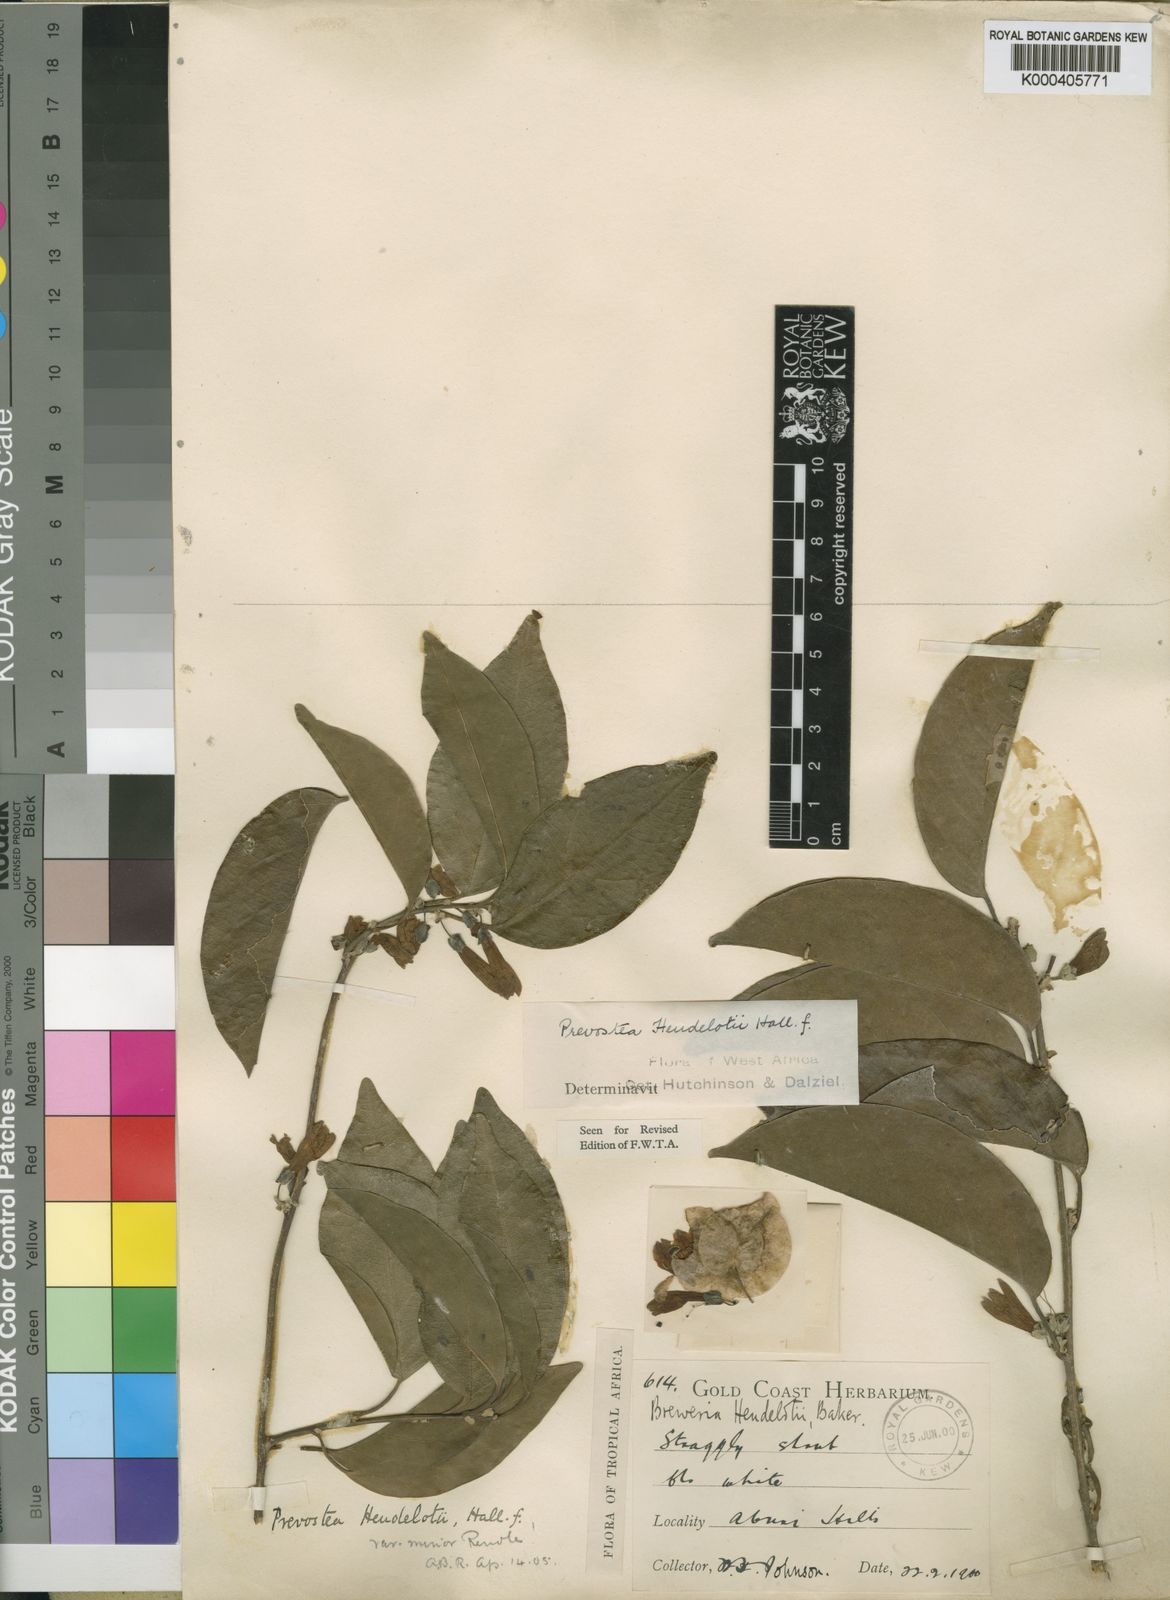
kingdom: Plantae
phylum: Tracheophyta
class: Magnoliopsida
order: Solanales
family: Convolvulaceae
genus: Calycobolus
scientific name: Calycobolus heudelotii
